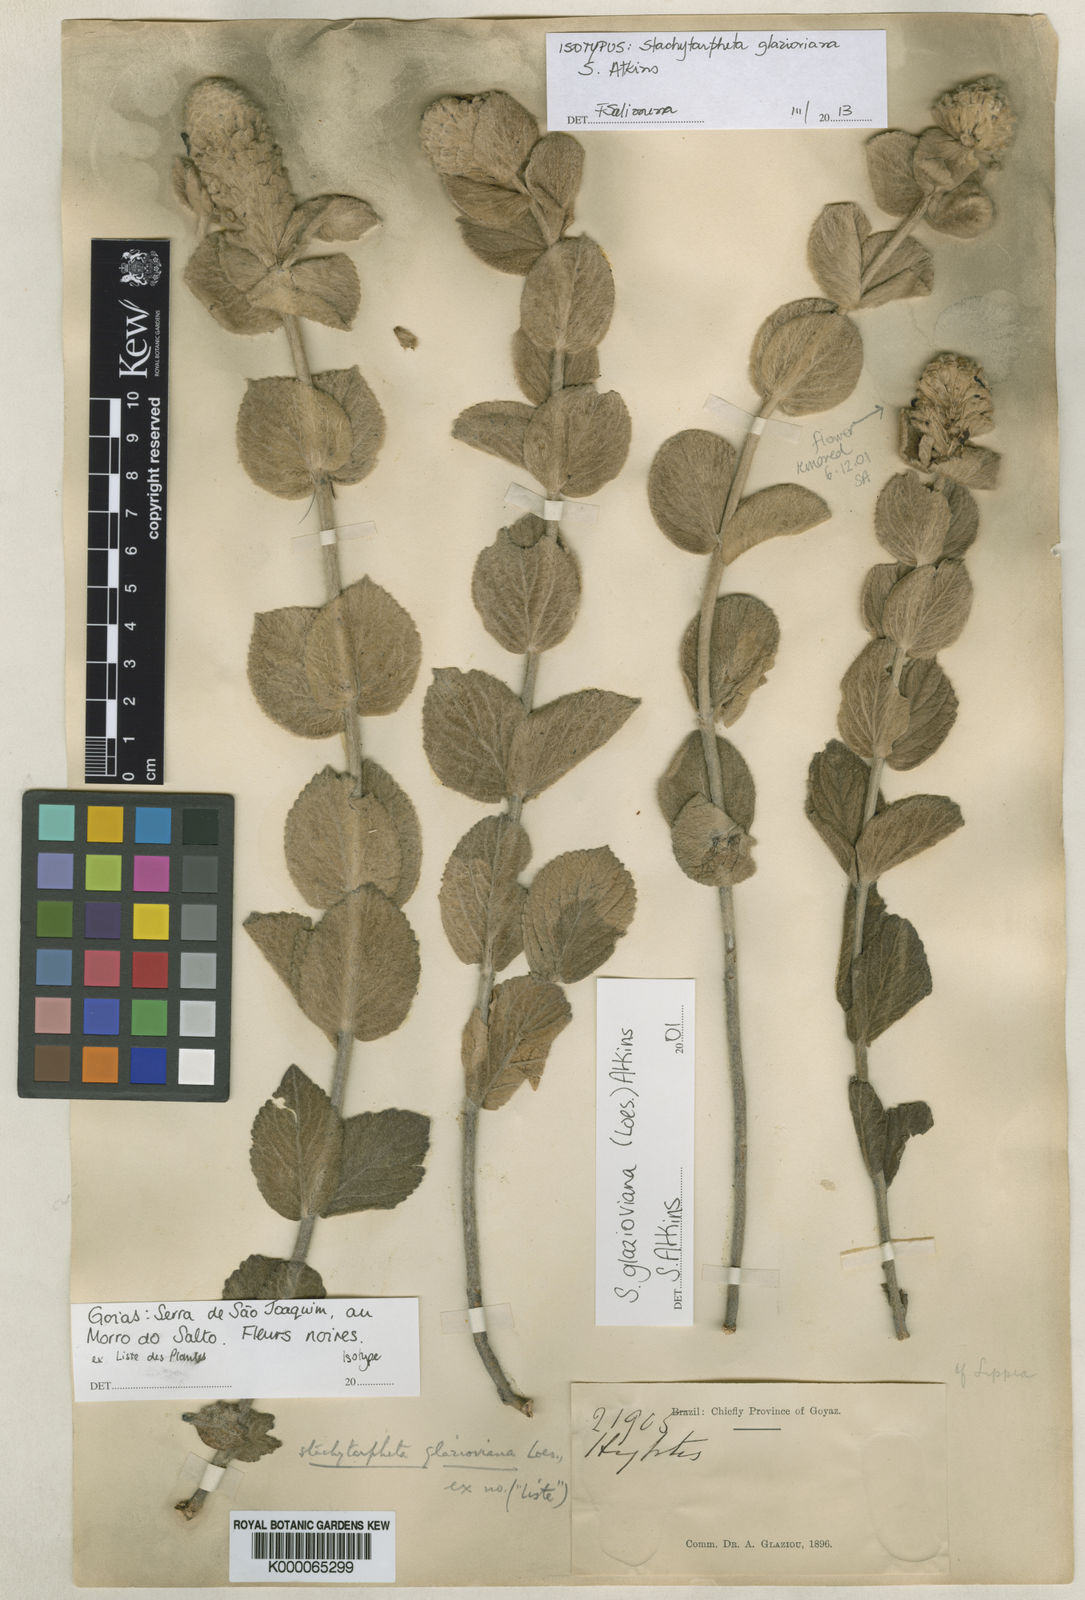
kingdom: Plantae
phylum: Tracheophyta
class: Magnoliopsida
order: Lamiales
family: Verbenaceae
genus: Stachytarpheta
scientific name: Stachytarpheta glazioviana
